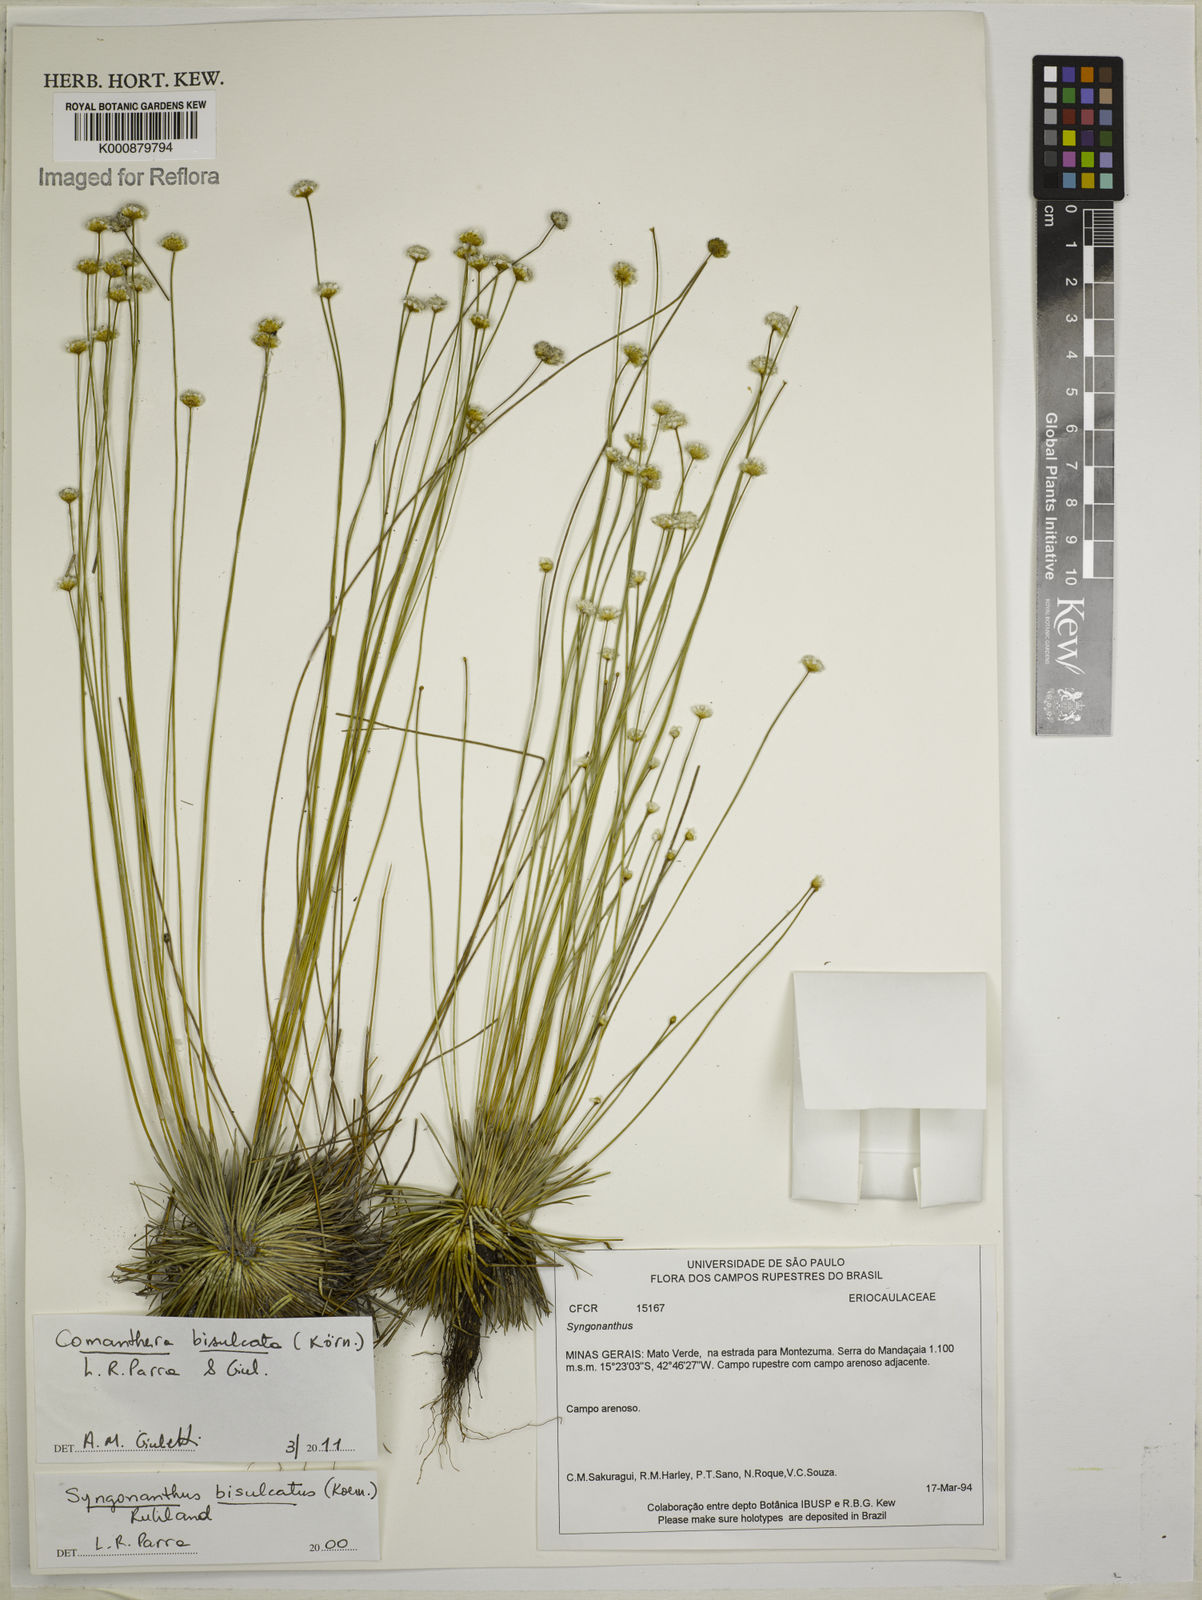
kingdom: Plantae
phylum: Tracheophyta
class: Liliopsida
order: Poales
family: Eriocaulaceae
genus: Comanthera
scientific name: Comanthera
